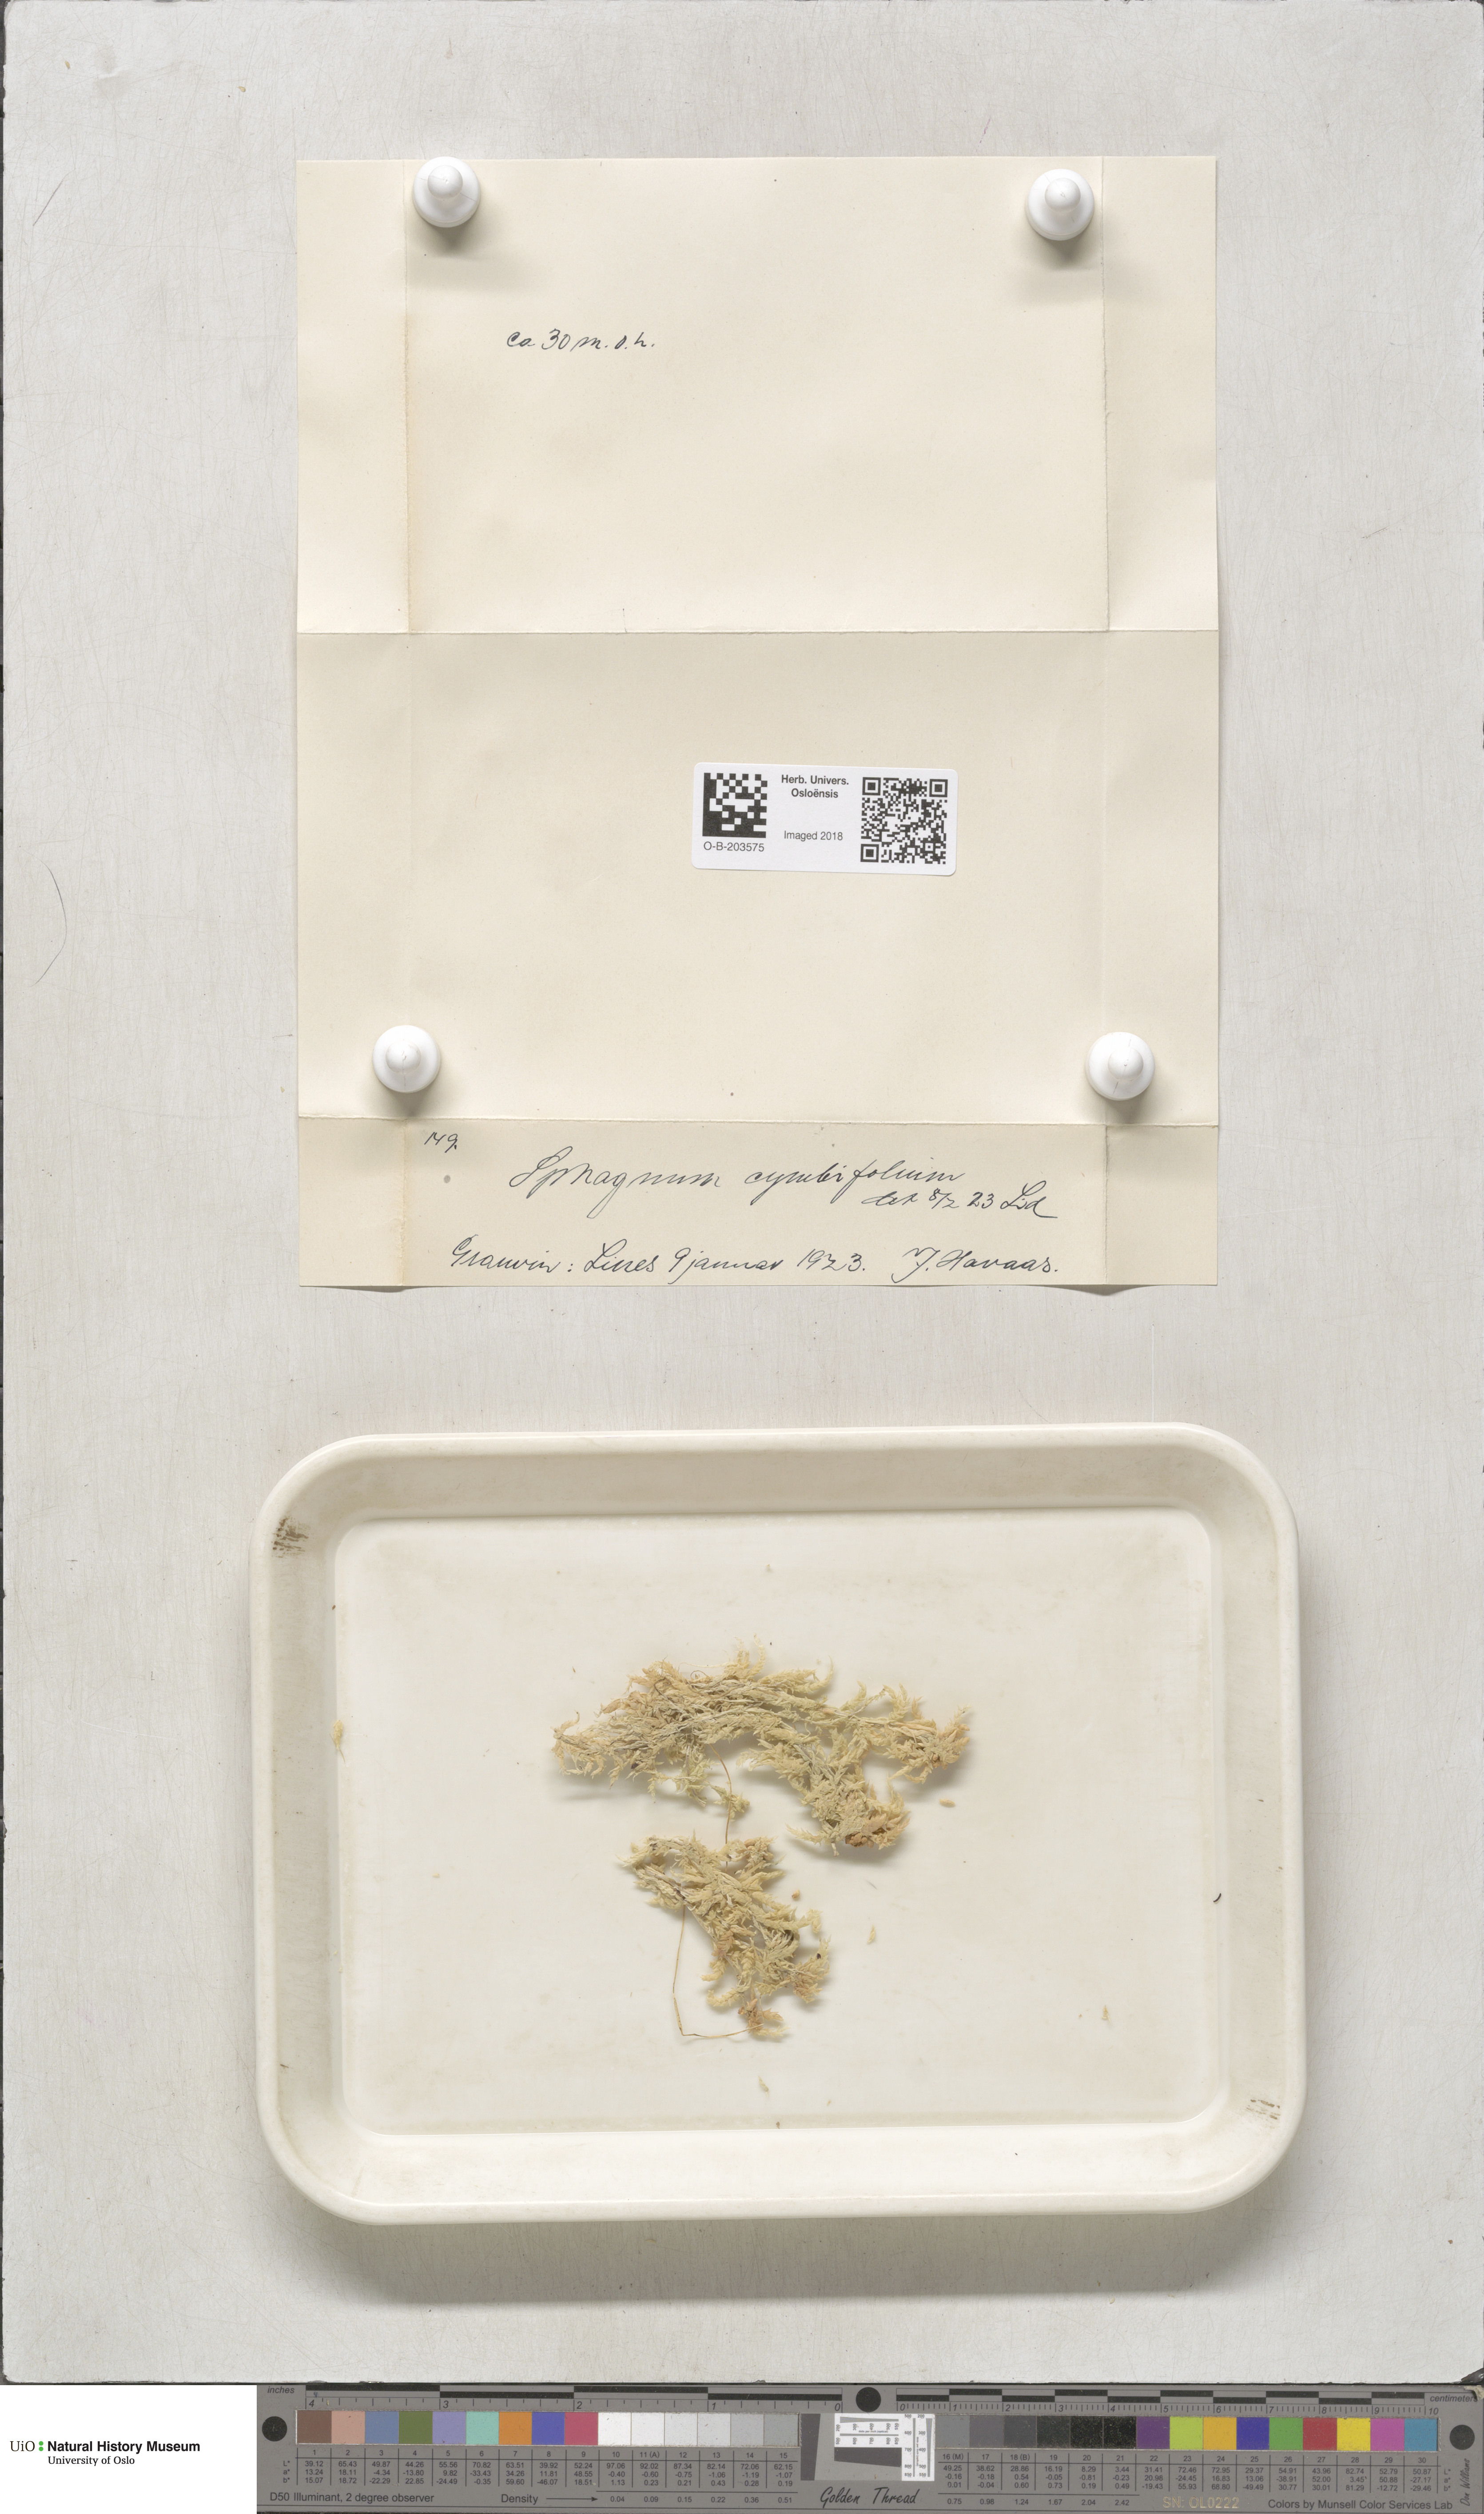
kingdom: Plantae
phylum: Bryophyta
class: Sphagnopsida
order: Sphagnales
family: Sphagnaceae
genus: Sphagnum
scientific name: Sphagnum palustre
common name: Blunt-leaved bog-moss
